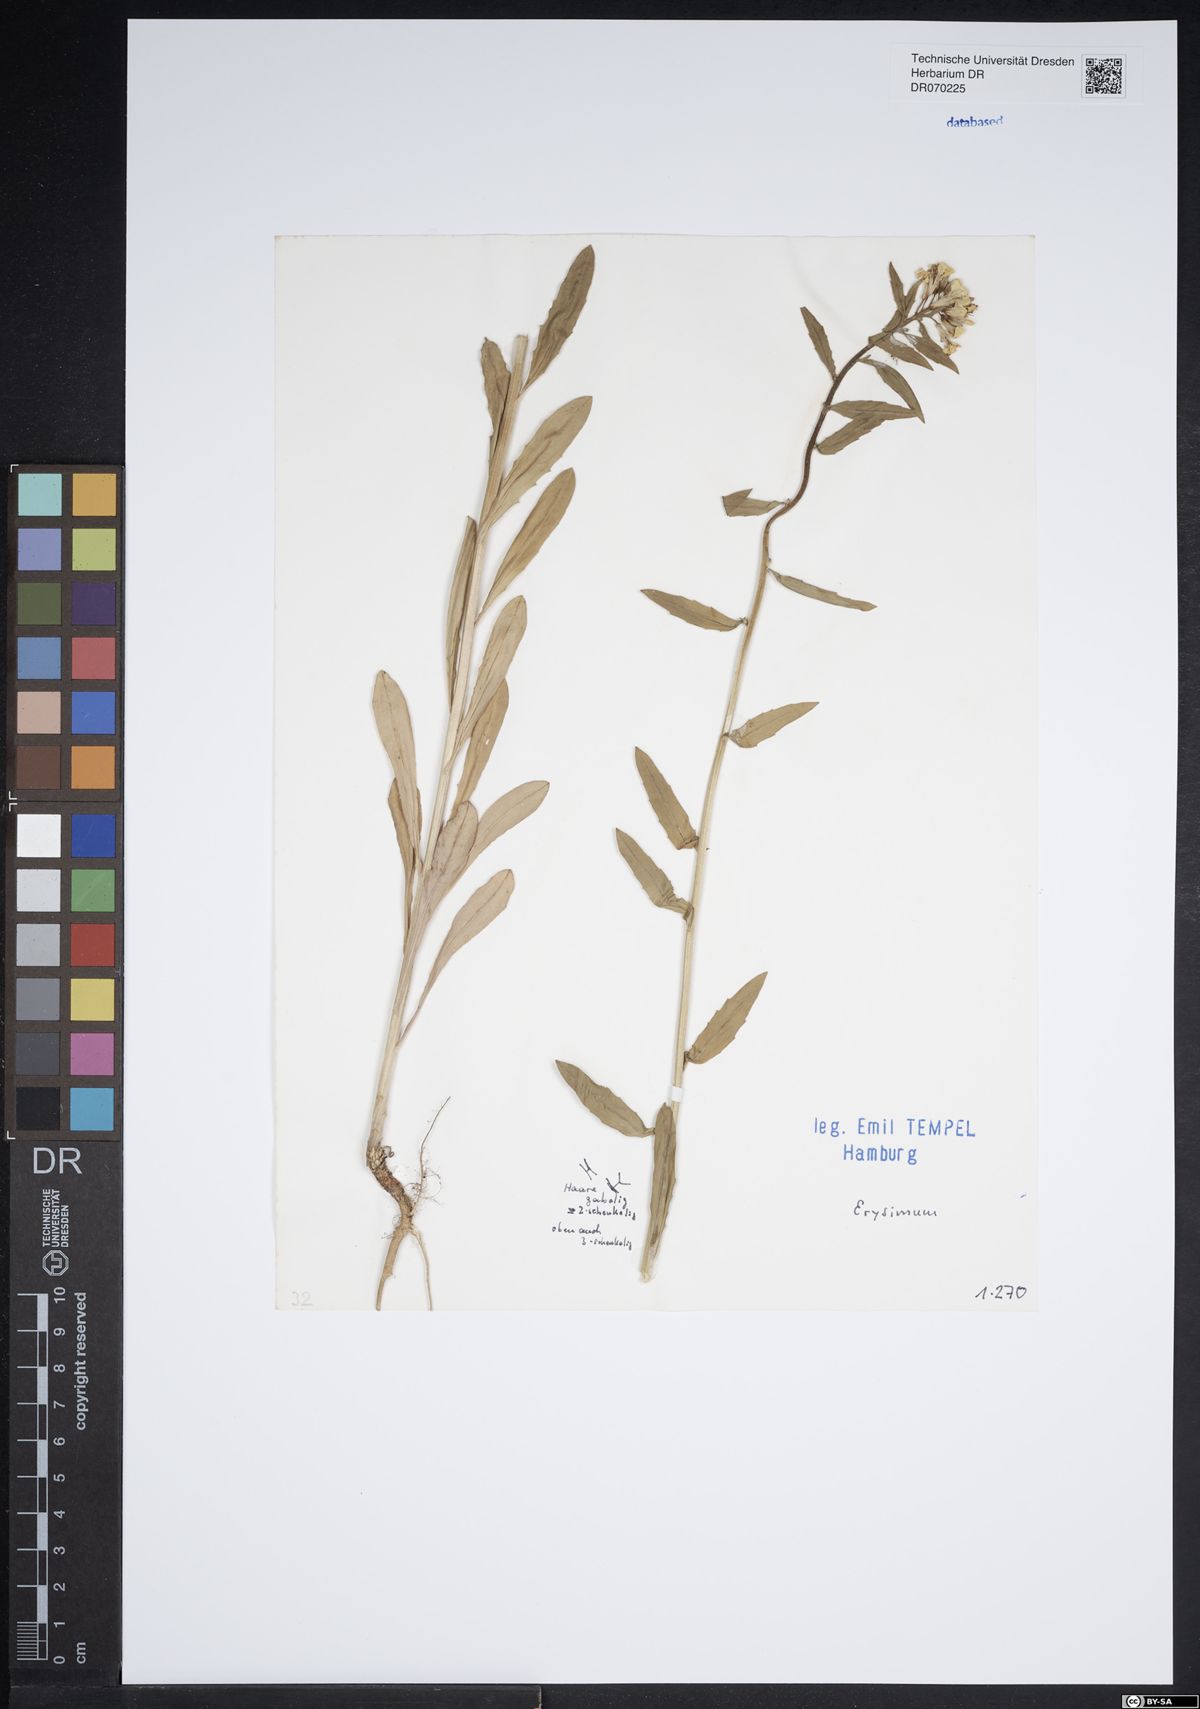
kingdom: Plantae
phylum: Tracheophyta
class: Magnoliopsida
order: Brassicales
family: Brassicaceae
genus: Erysimum
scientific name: Erysimum
